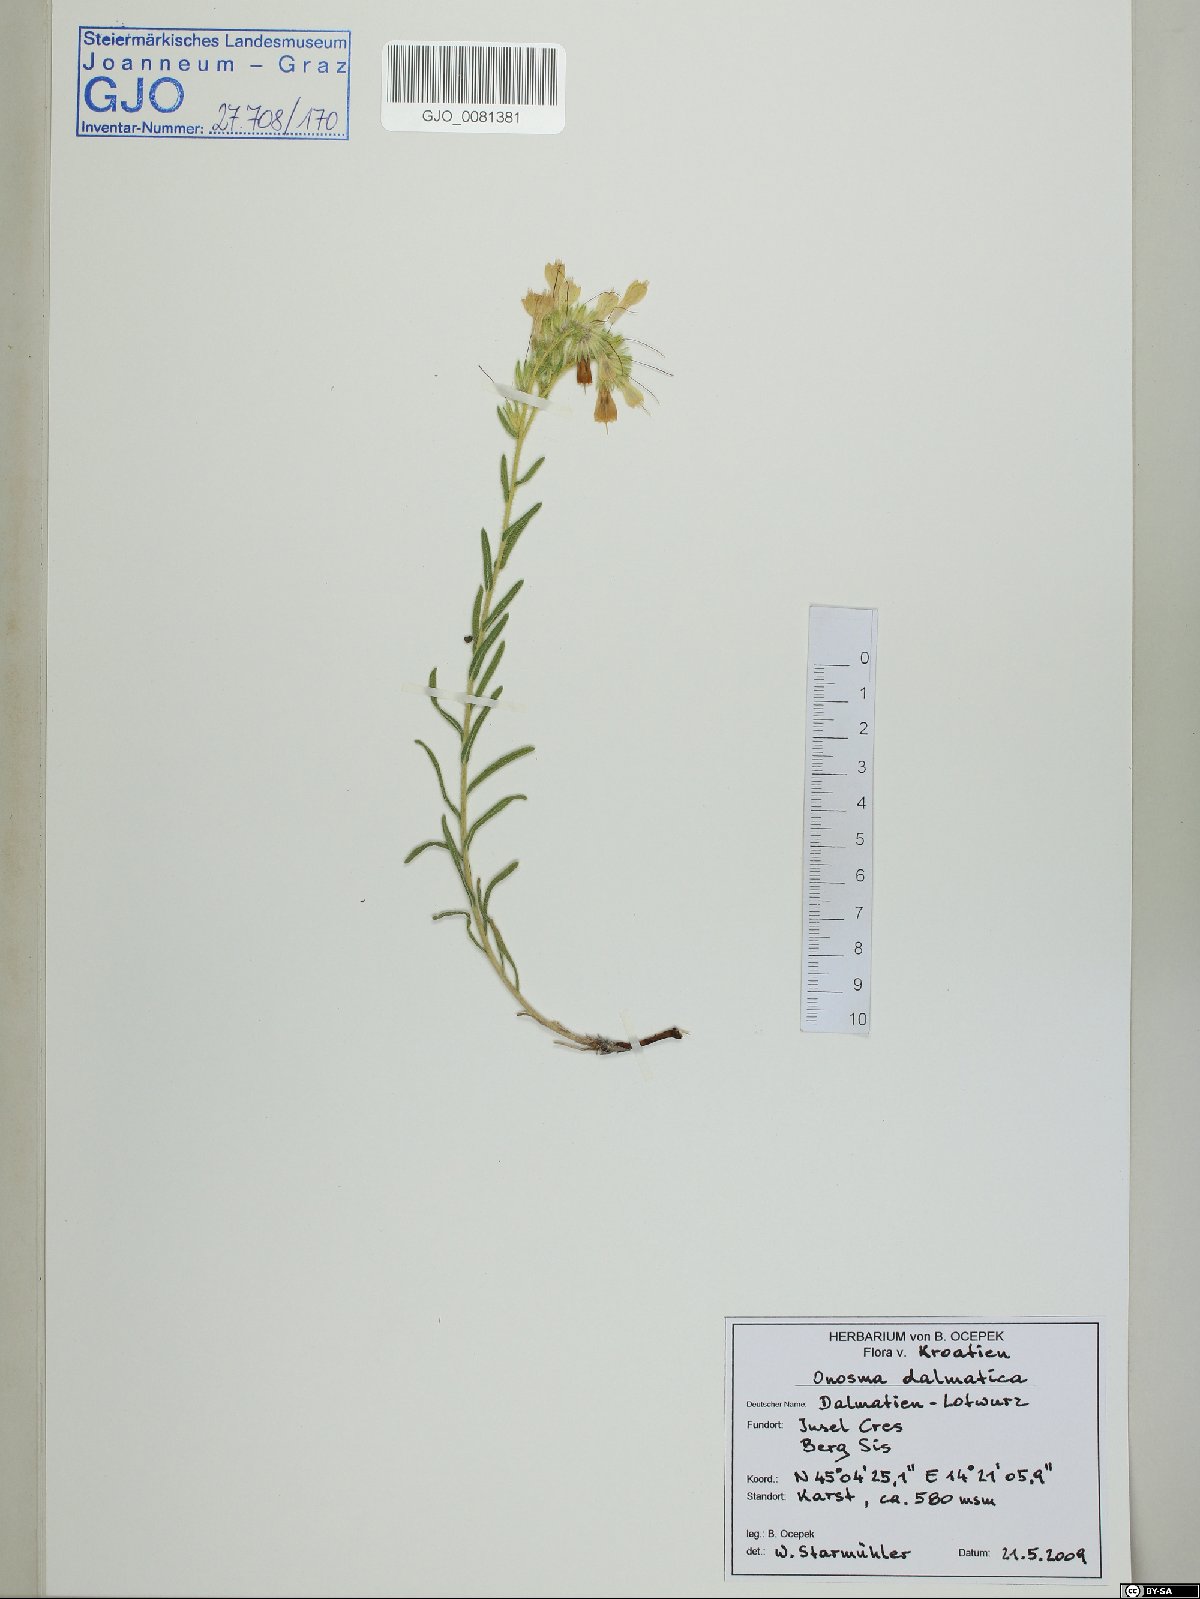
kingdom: Plantae
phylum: Tracheophyta
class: Magnoliopsida
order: Boraginales
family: Boraginaceae
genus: Onosma
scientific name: Onosma echioides
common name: Goldendrop
